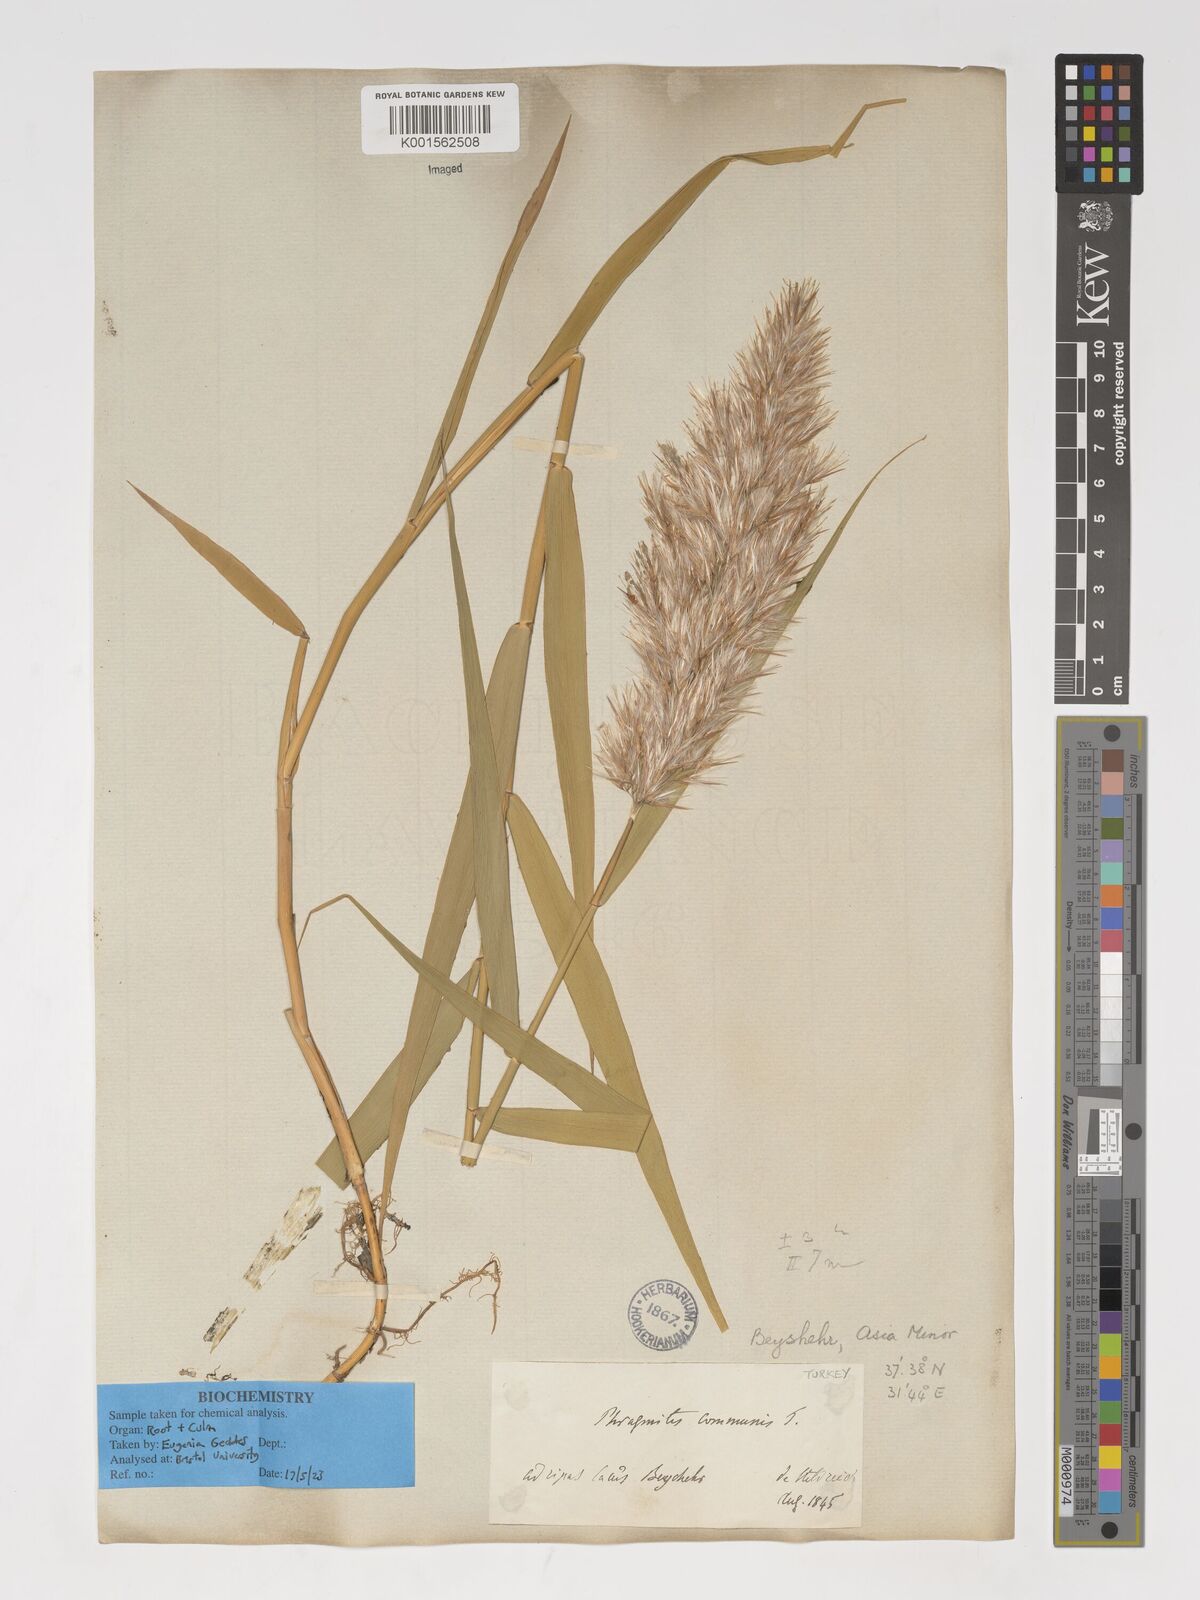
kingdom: Plantae
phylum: Tracheophyta
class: Liliopsida
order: Poales
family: Poaceae
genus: Phragmites
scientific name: Phragmites australis
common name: Common reed
